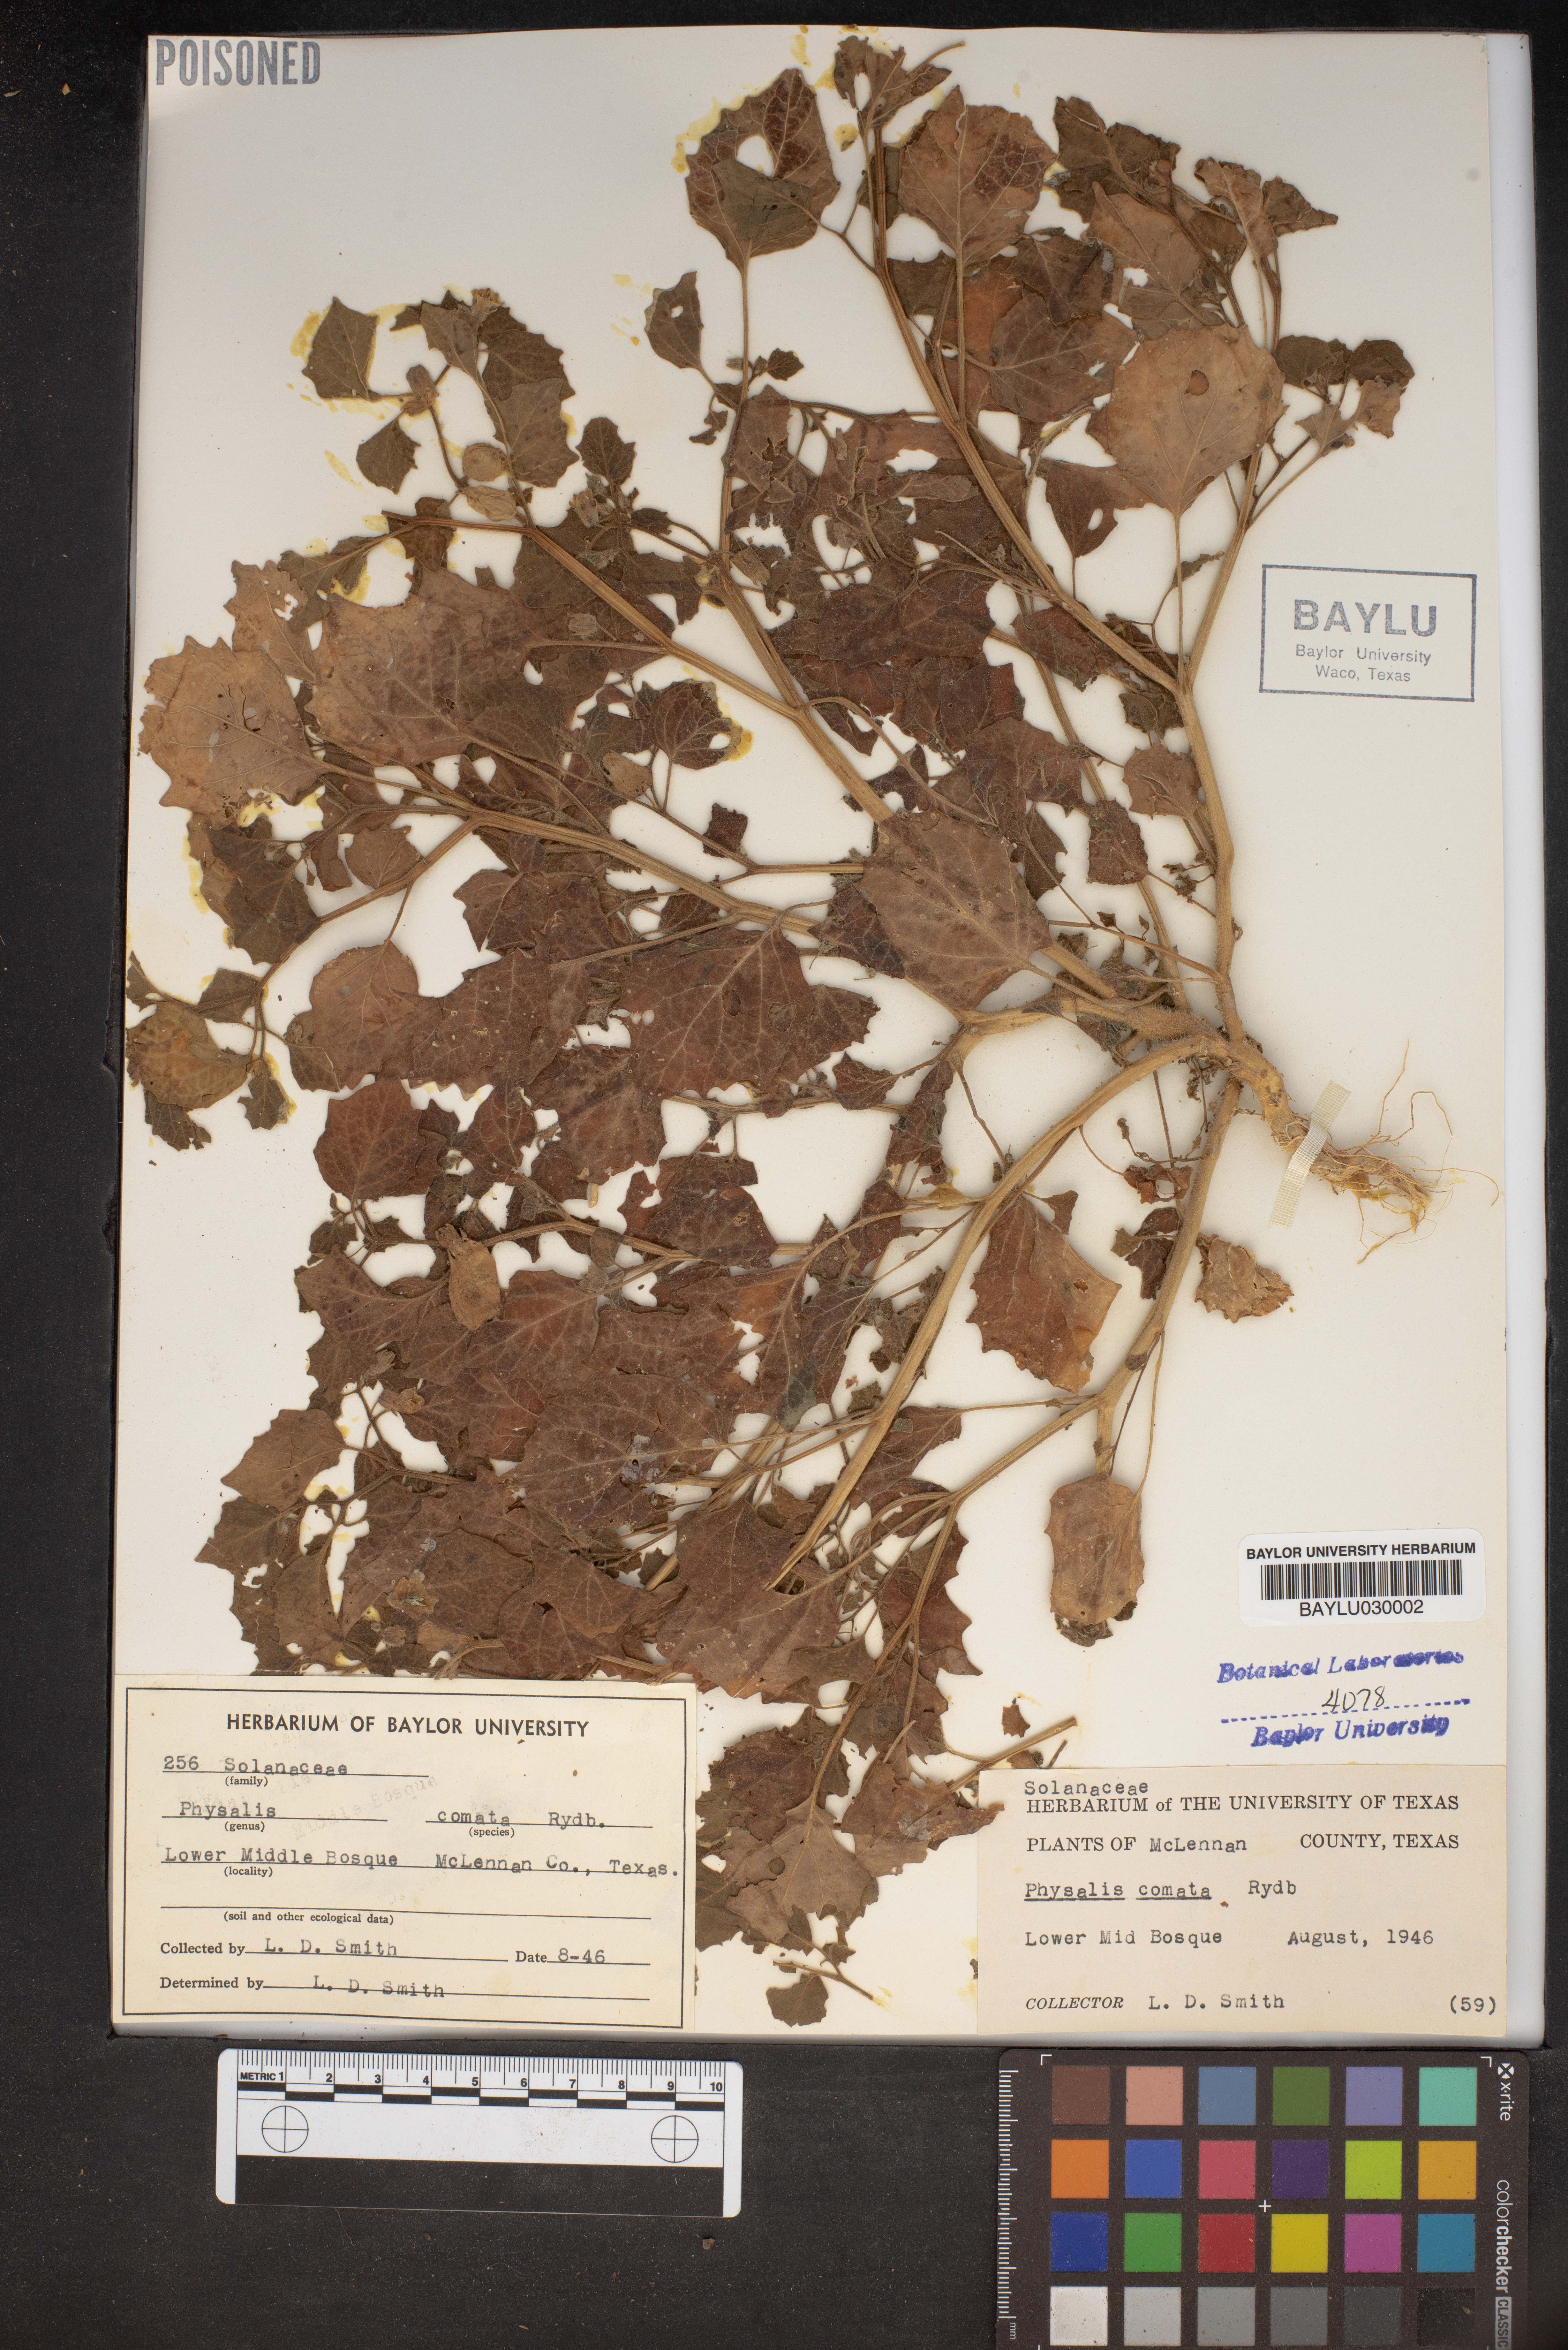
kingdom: Plantae
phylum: Tracheophyta
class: Magnoliopsida
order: Solanales
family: Solanaceae
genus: Physalis
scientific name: Physalis hederifolia
